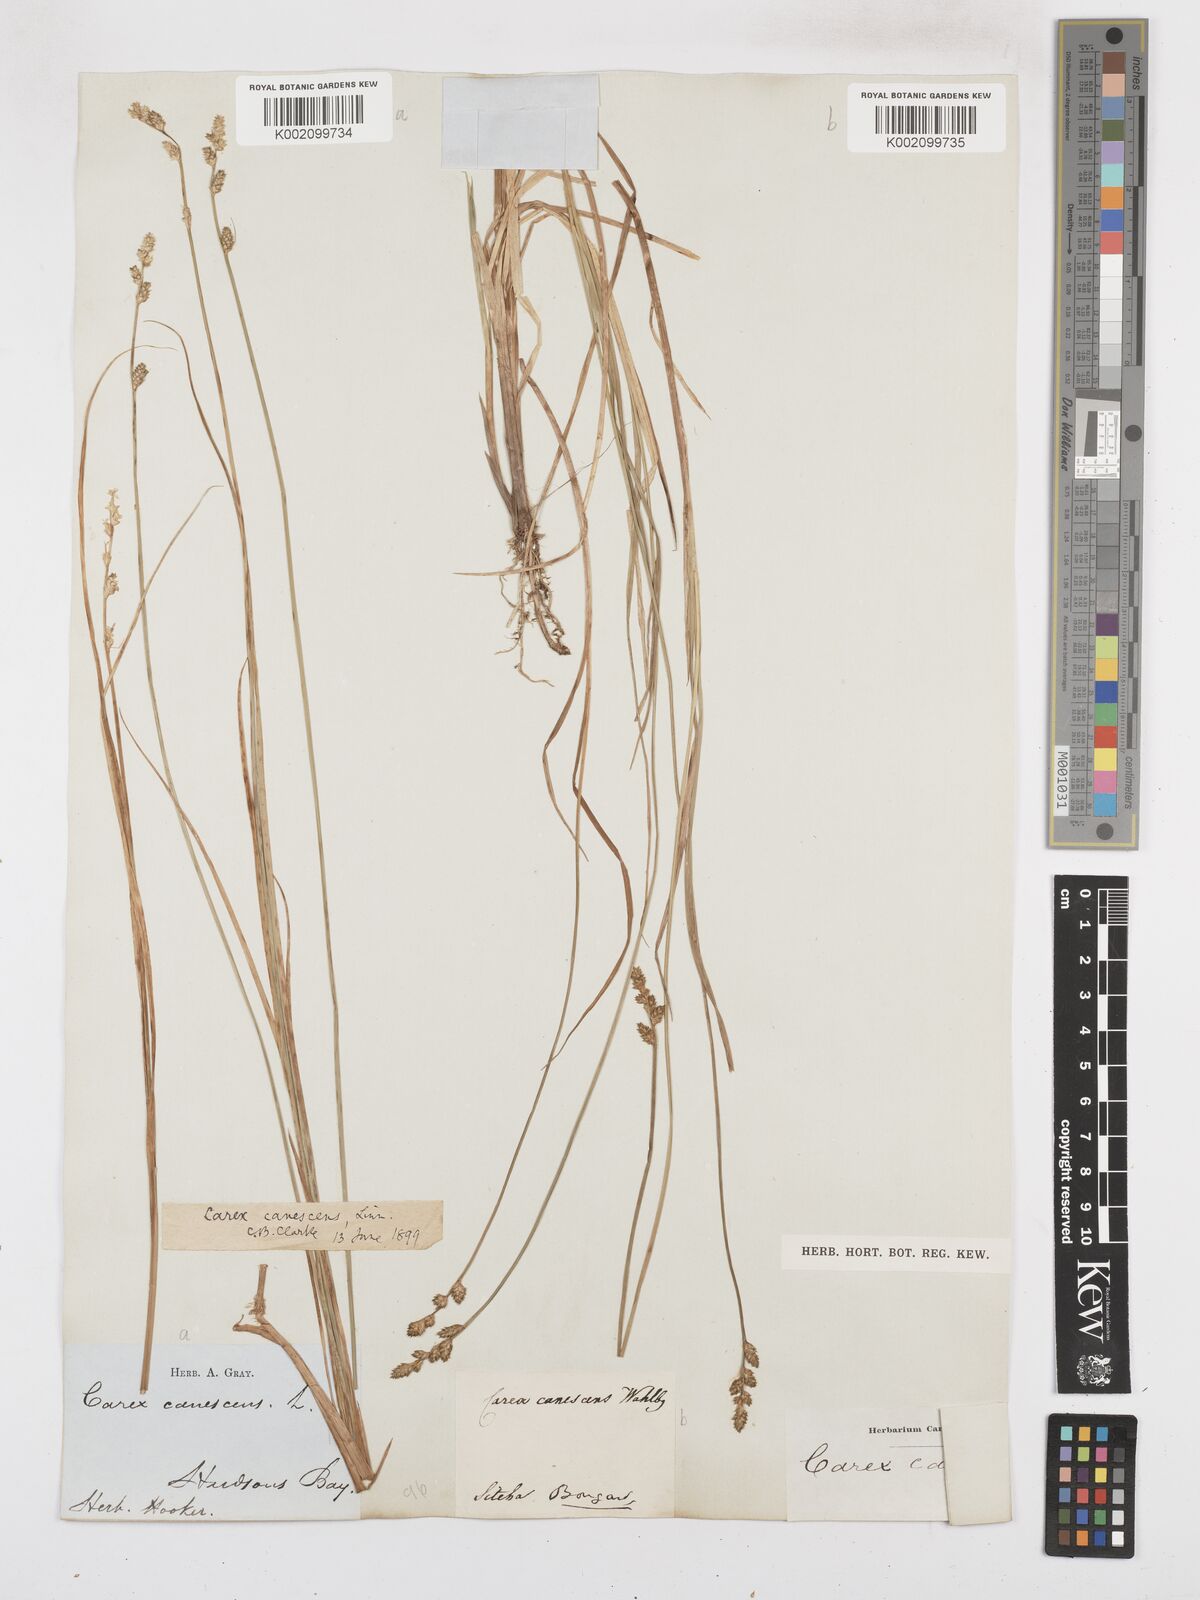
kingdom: Plantae
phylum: Tracheophyta
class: Liliopsida
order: Poales
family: Cyperaceae
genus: Carex
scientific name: Carex curta
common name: White sedge
